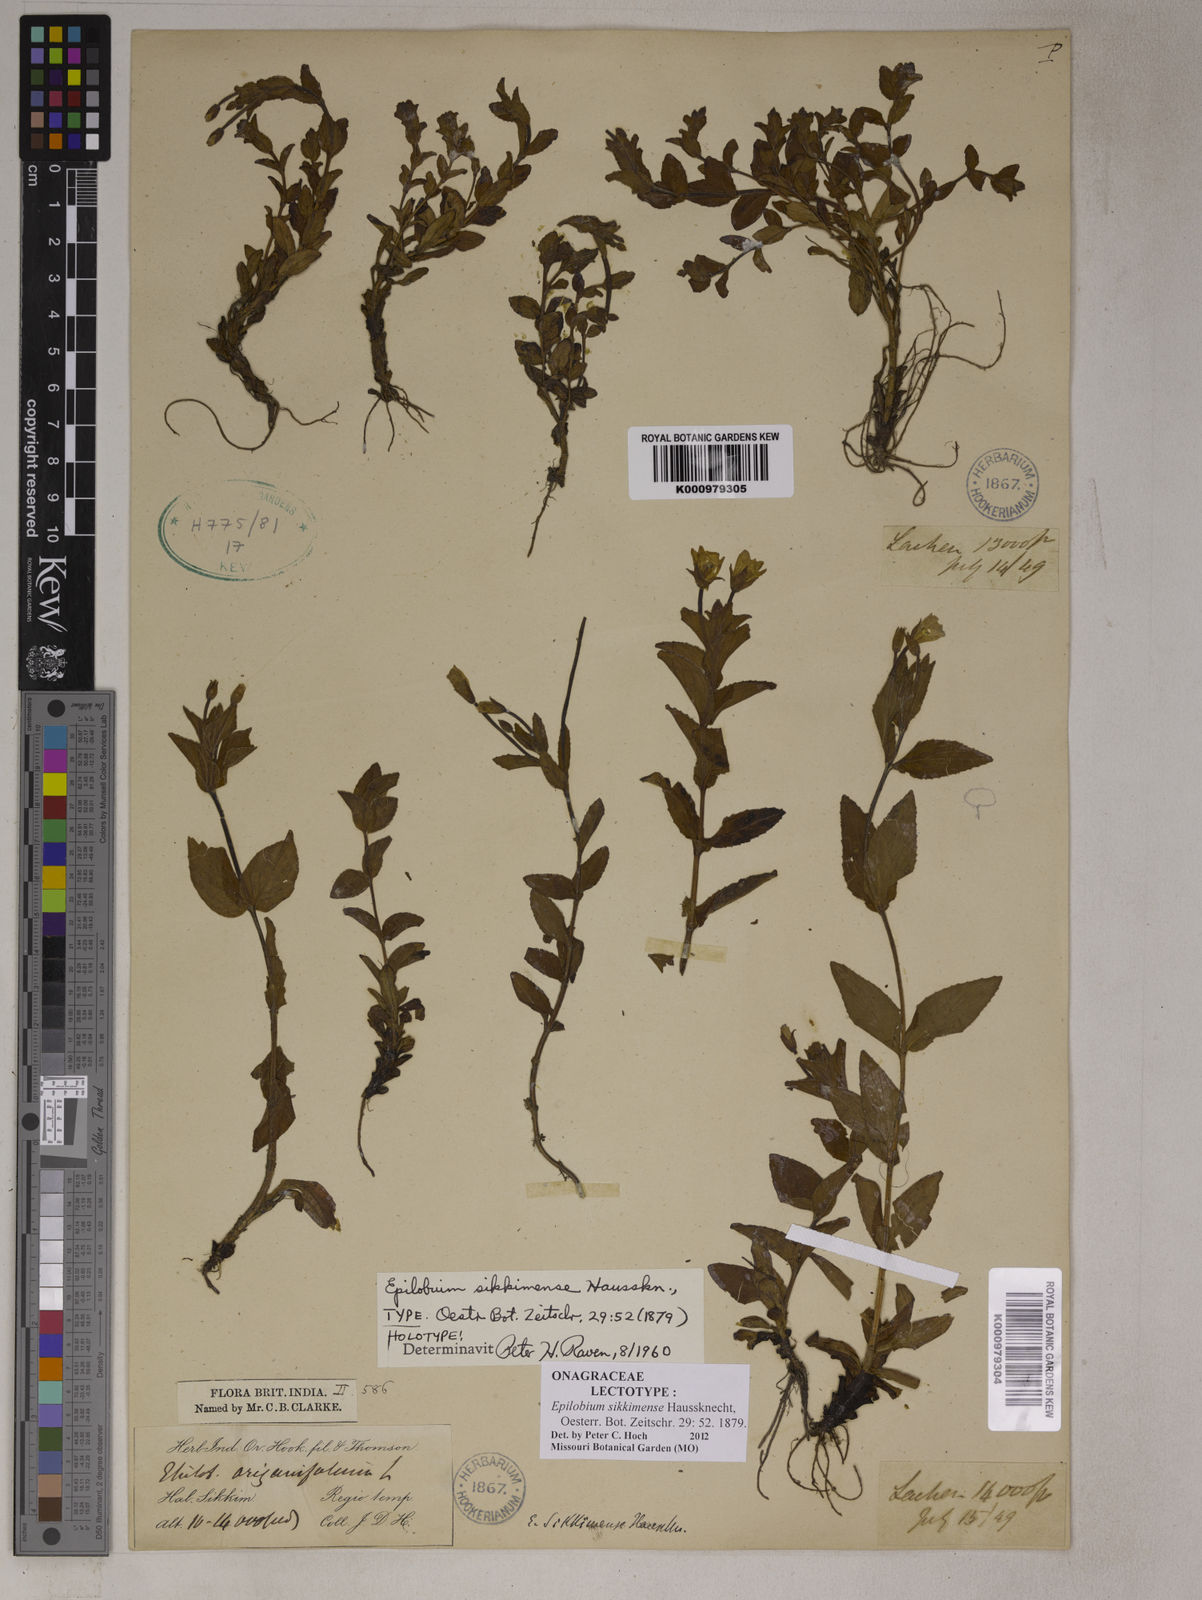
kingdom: Plantae
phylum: Tracheophyta
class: Magnoliopsida
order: Myrtales
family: Onagraceae
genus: Epilobium
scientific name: Epilobium sikkimense
